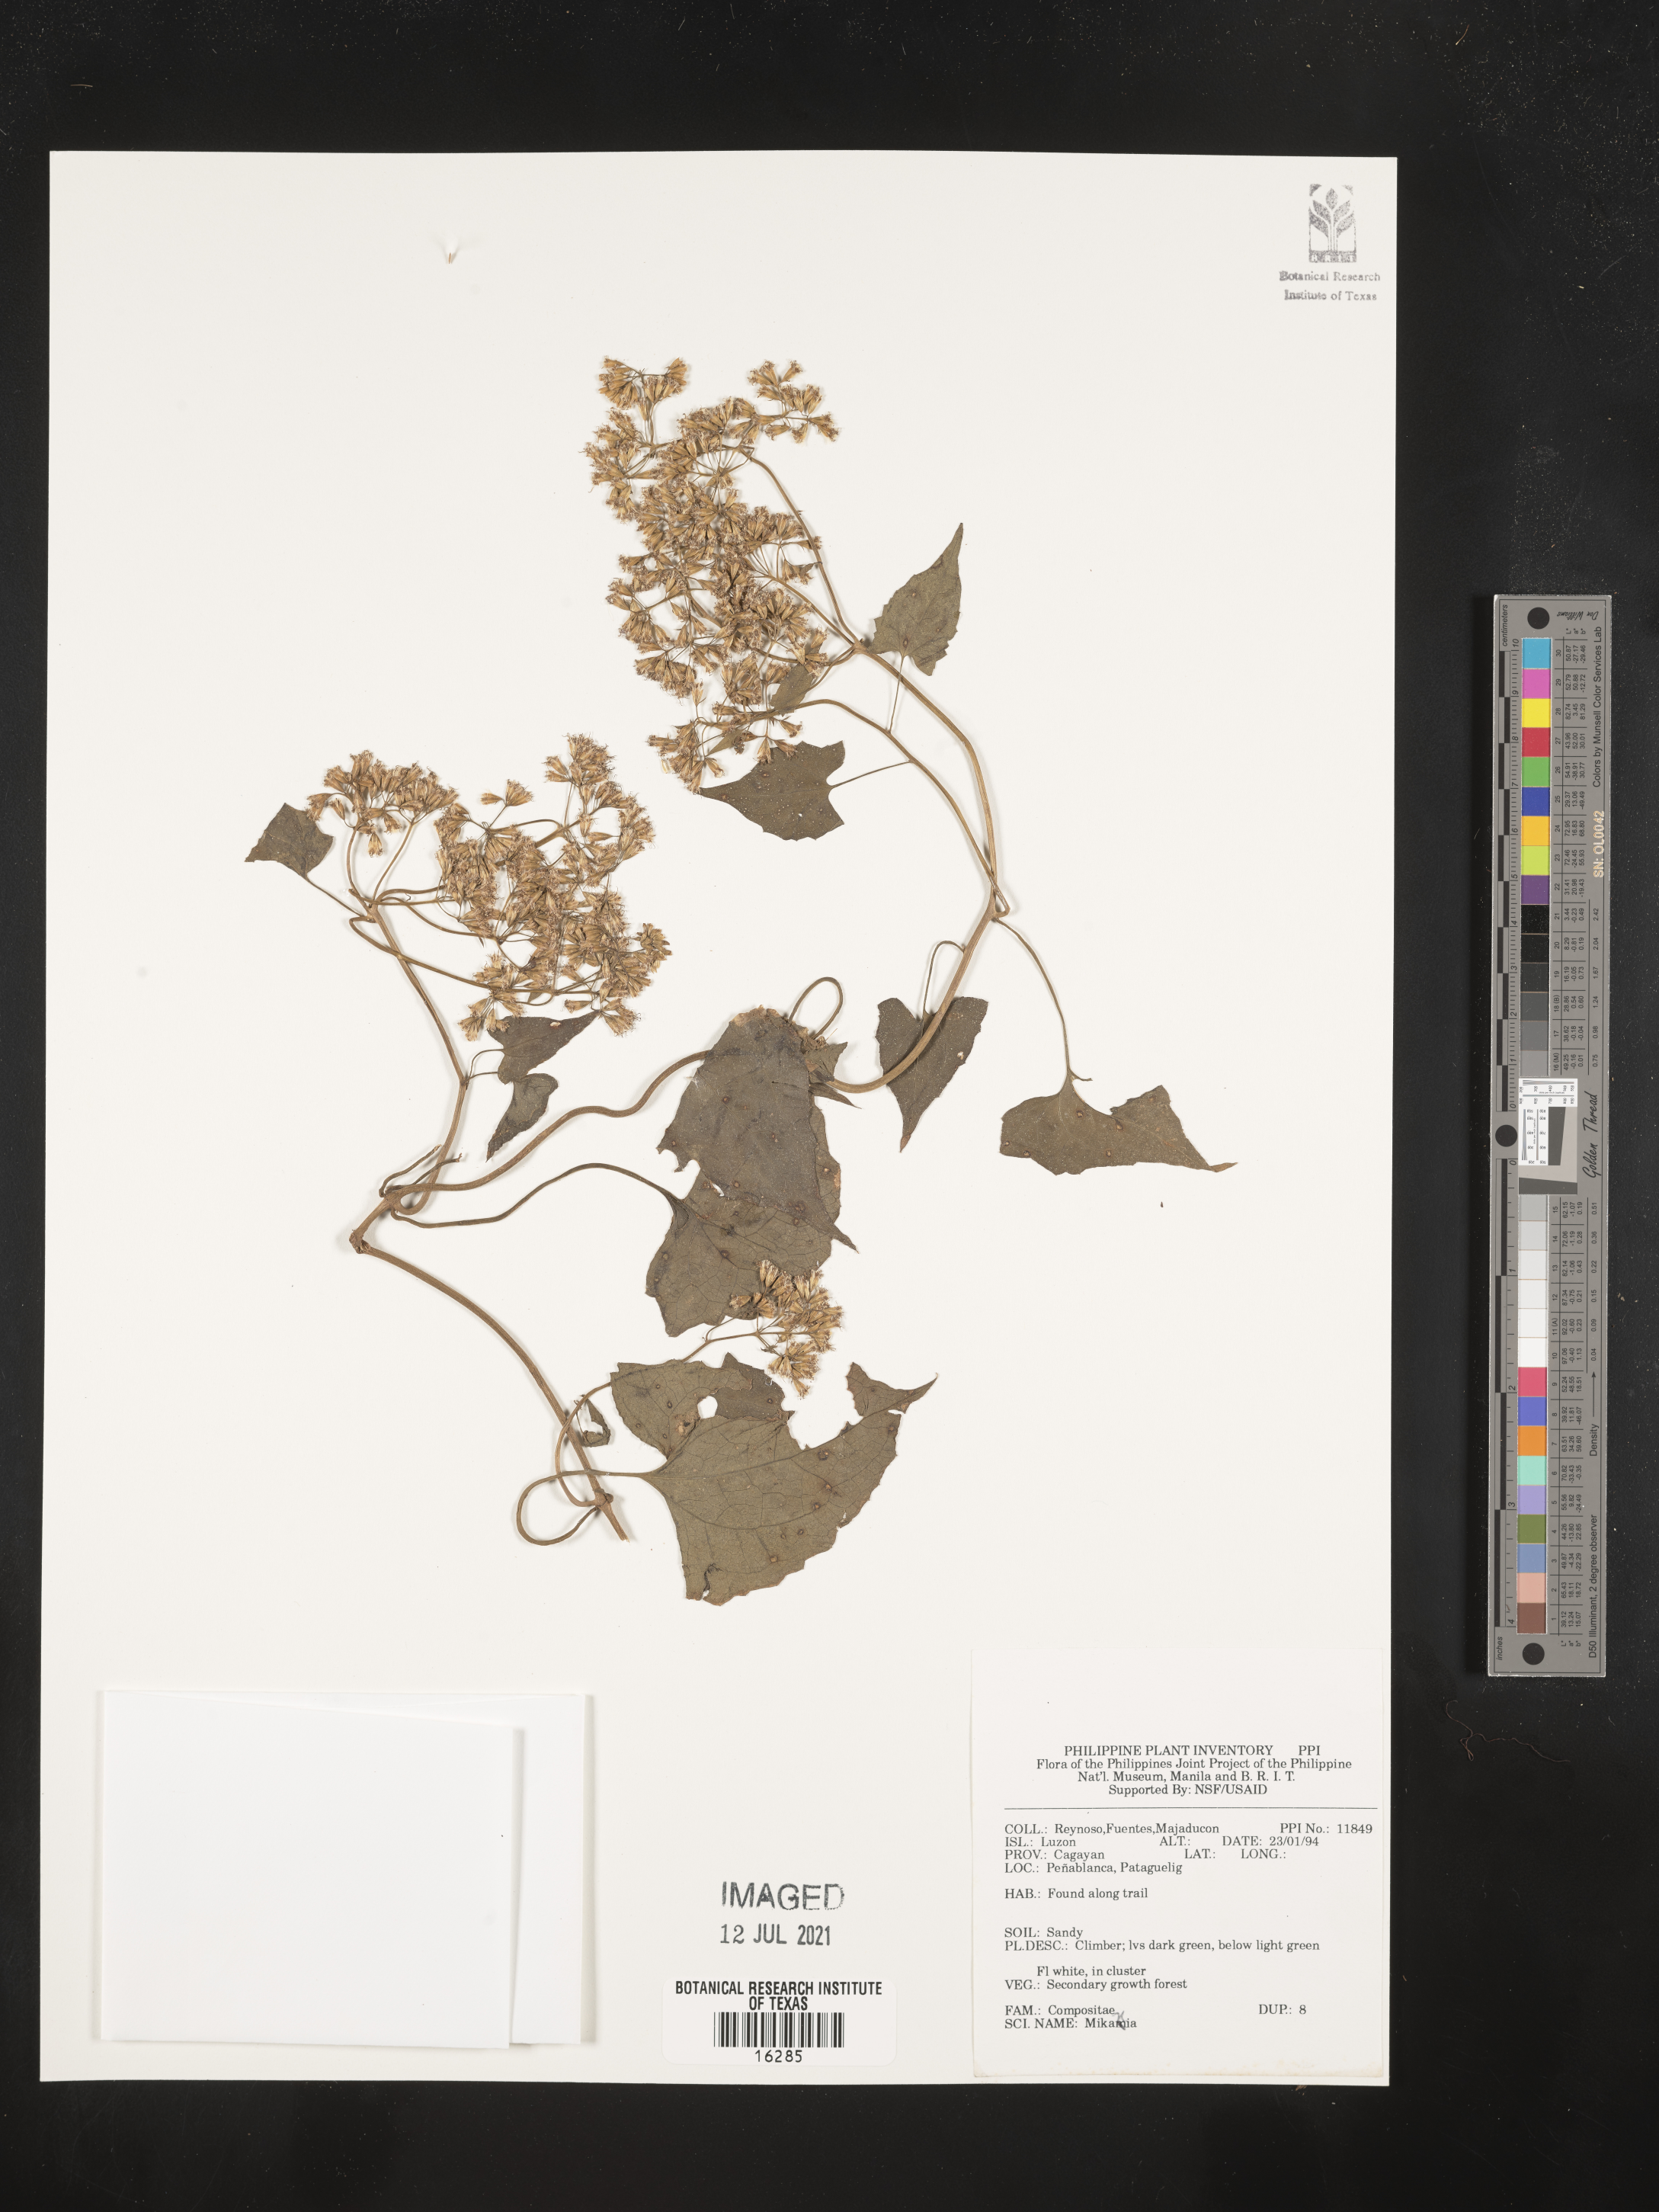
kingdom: Plantae
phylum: Tracheophyta
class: Magnoliopsida
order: Asterales
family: Asteraceae
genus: Mikania
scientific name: Mikania
